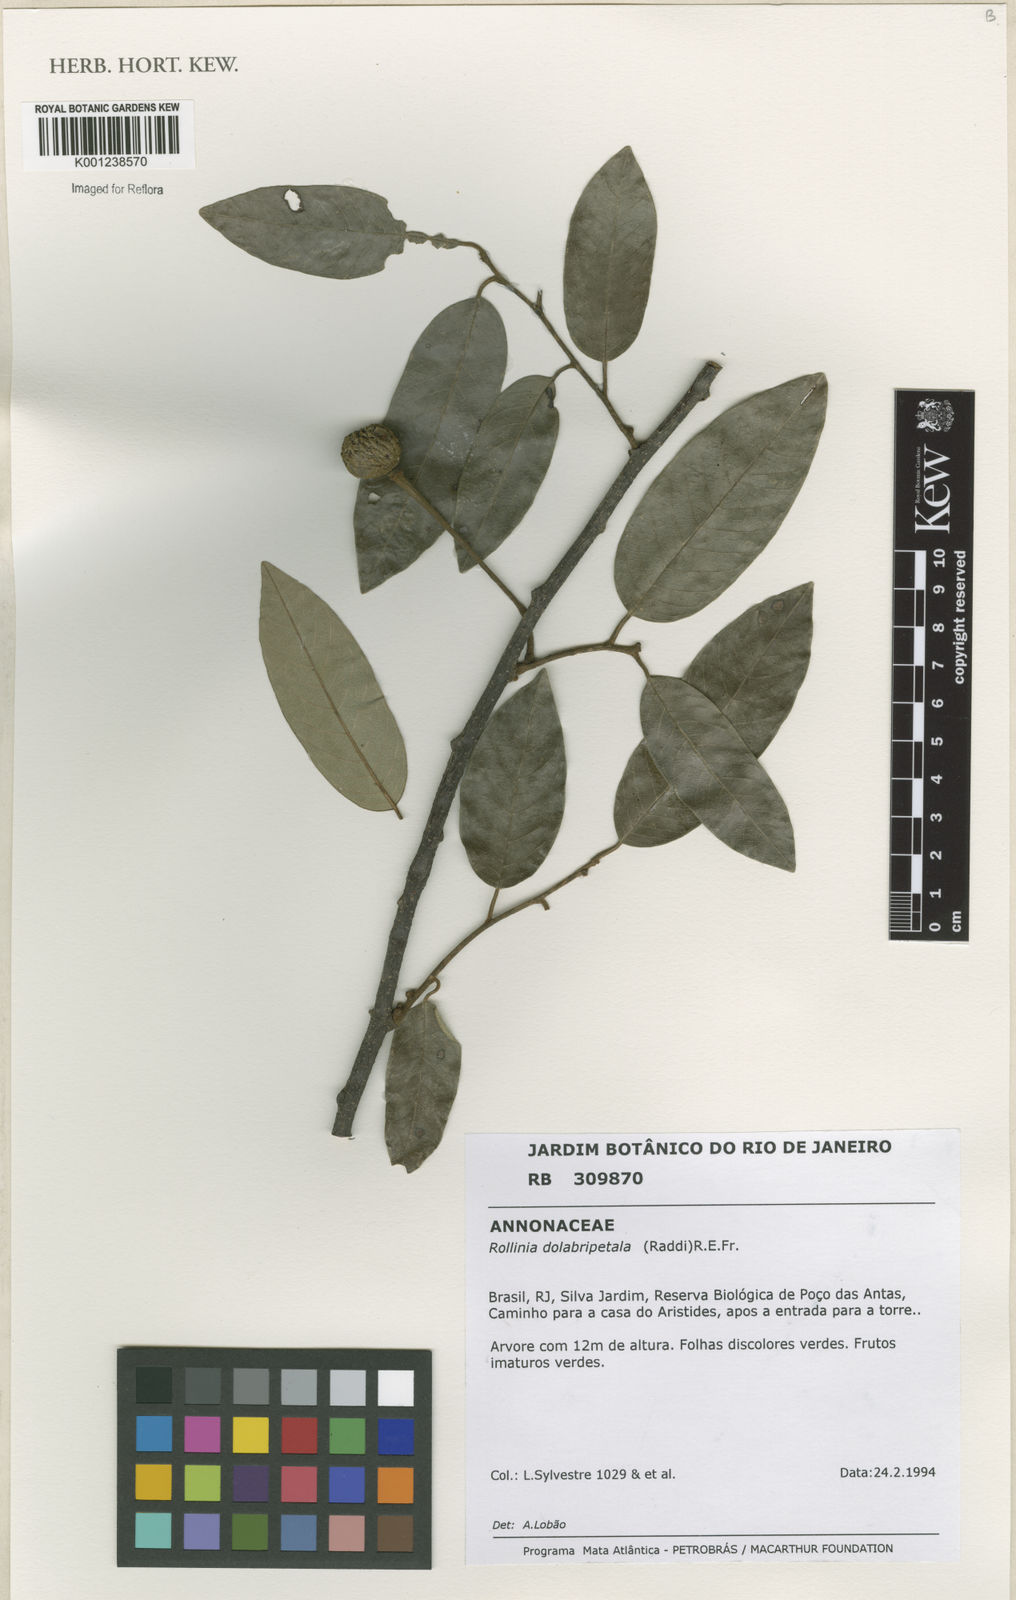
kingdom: Plantae
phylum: Tracheophyta
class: Magnoliopsida
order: Magnoliales
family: Annonaceae
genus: Annona
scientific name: Annona
